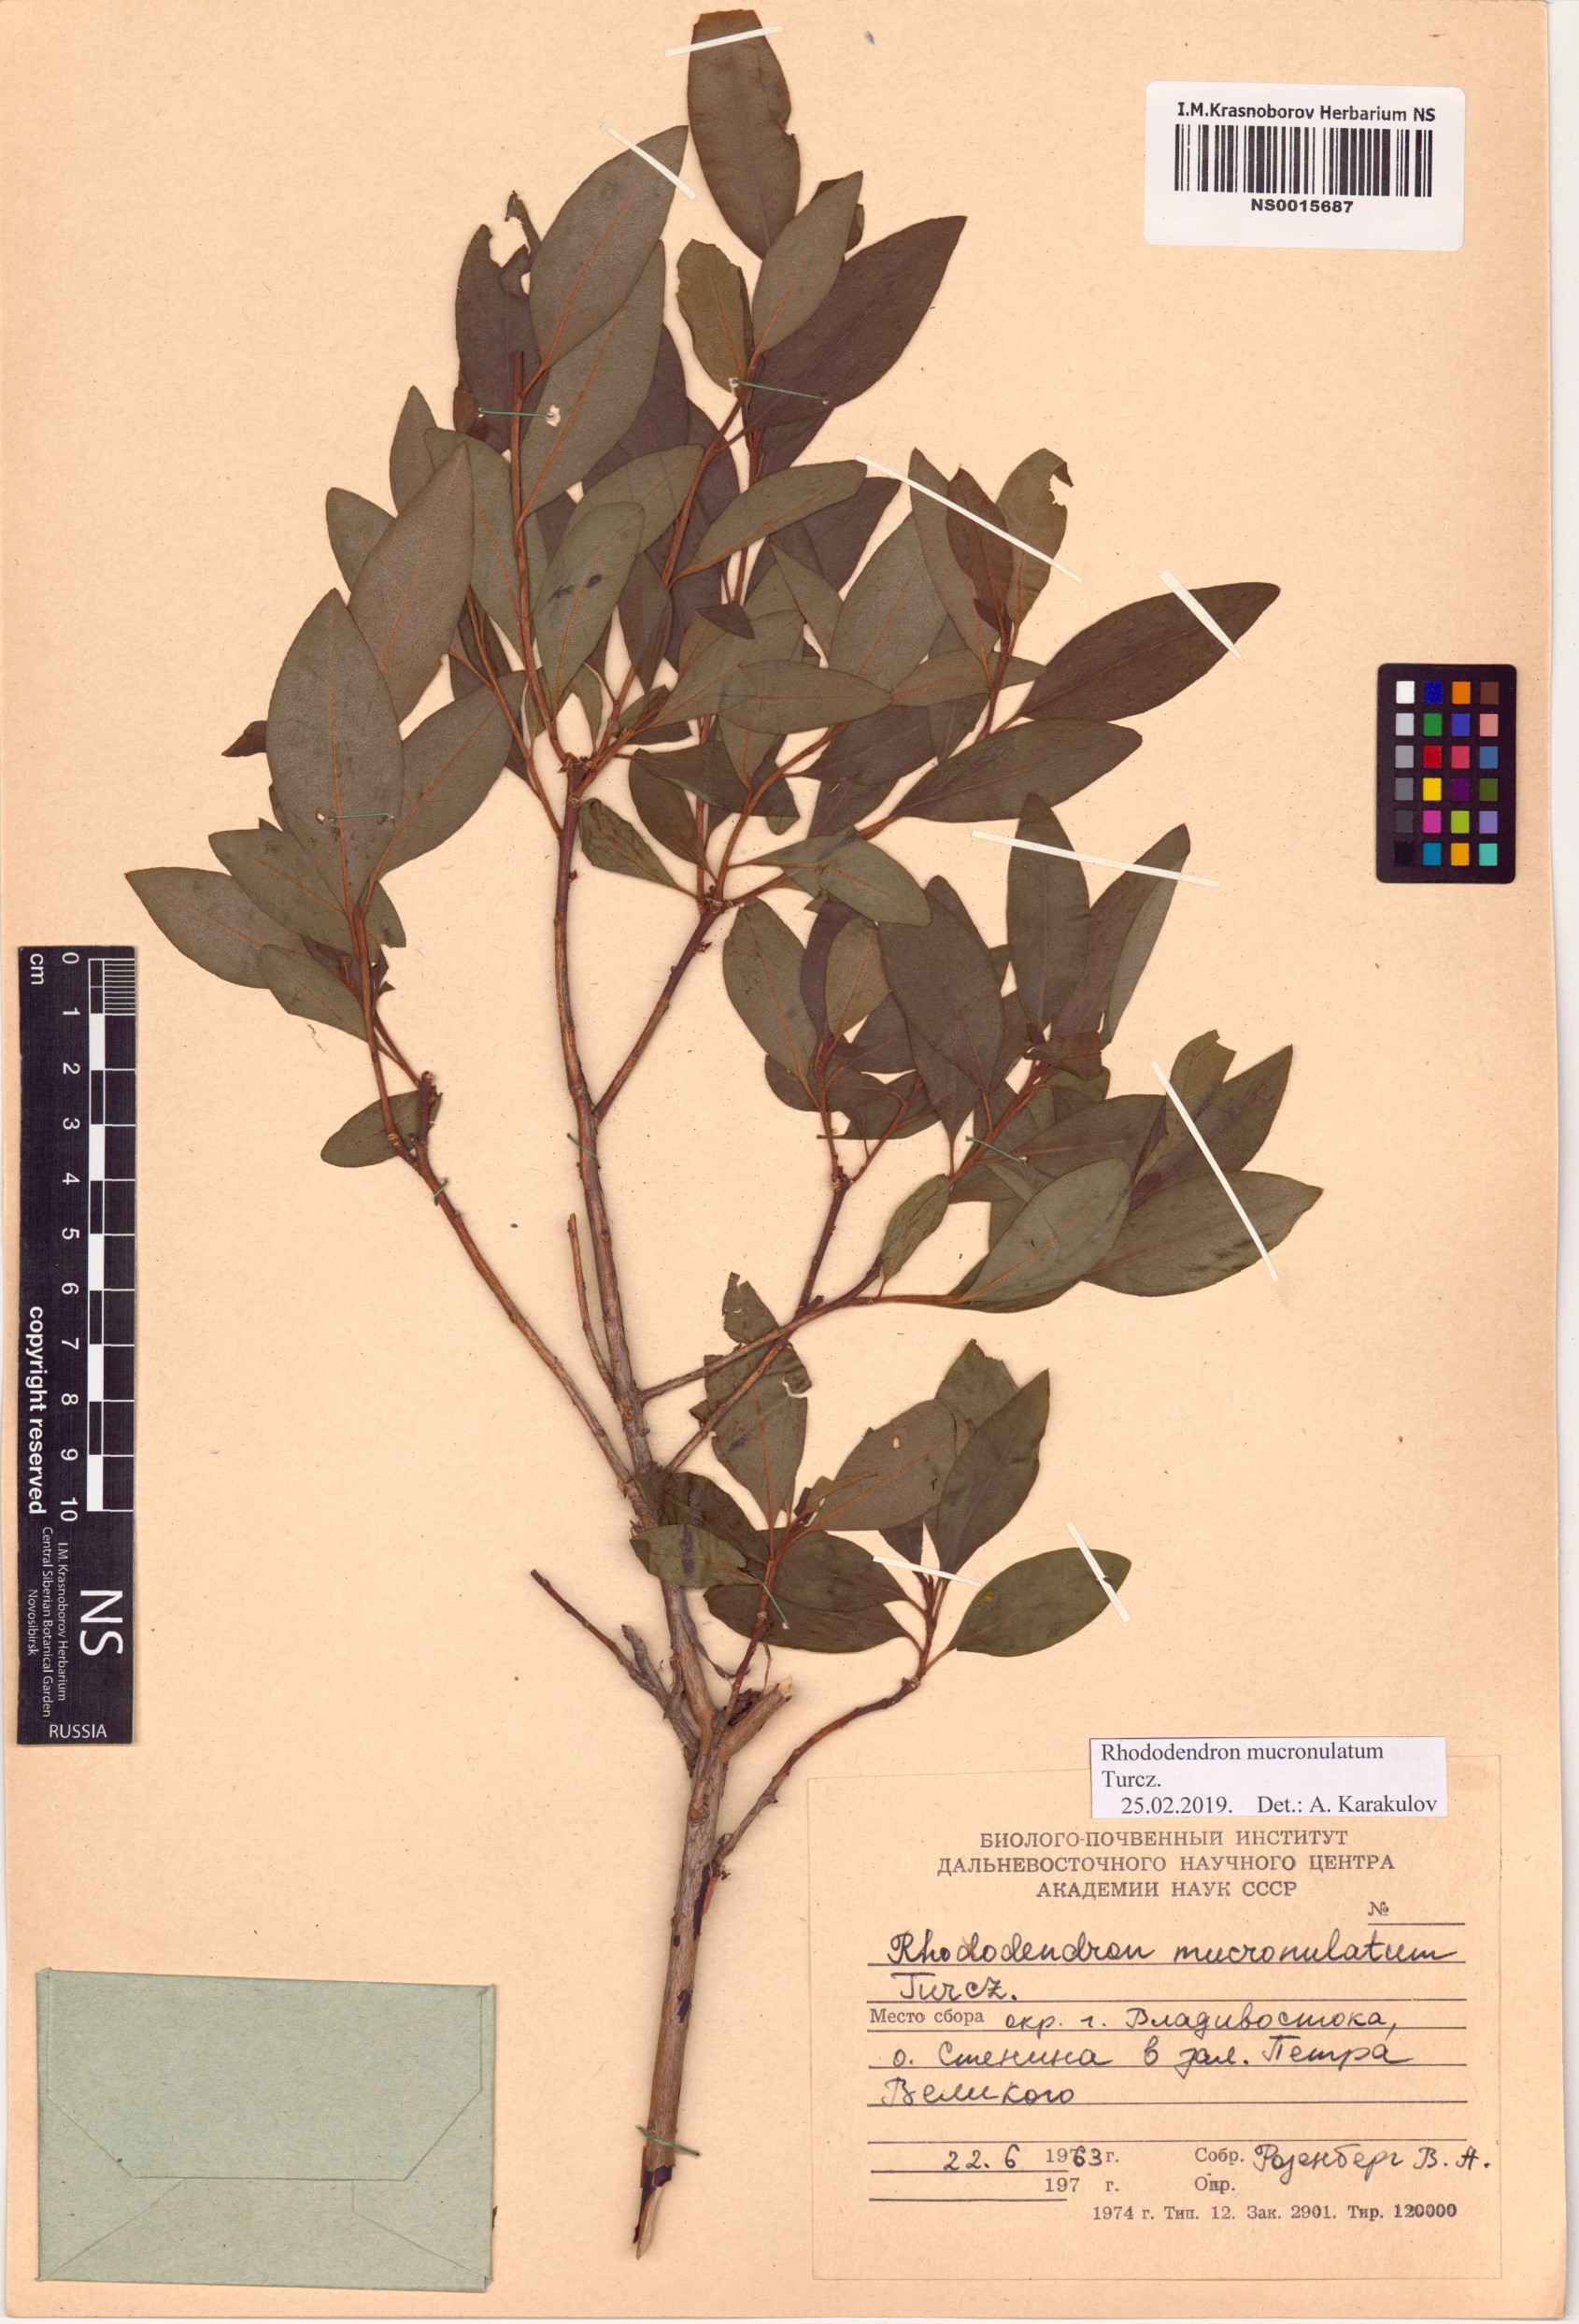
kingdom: Plantae
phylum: Tracheophyta
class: Magnoliopsida
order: Ericales
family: Ericaceae
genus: Rhododendron
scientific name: Rhododendron mucronulatum
